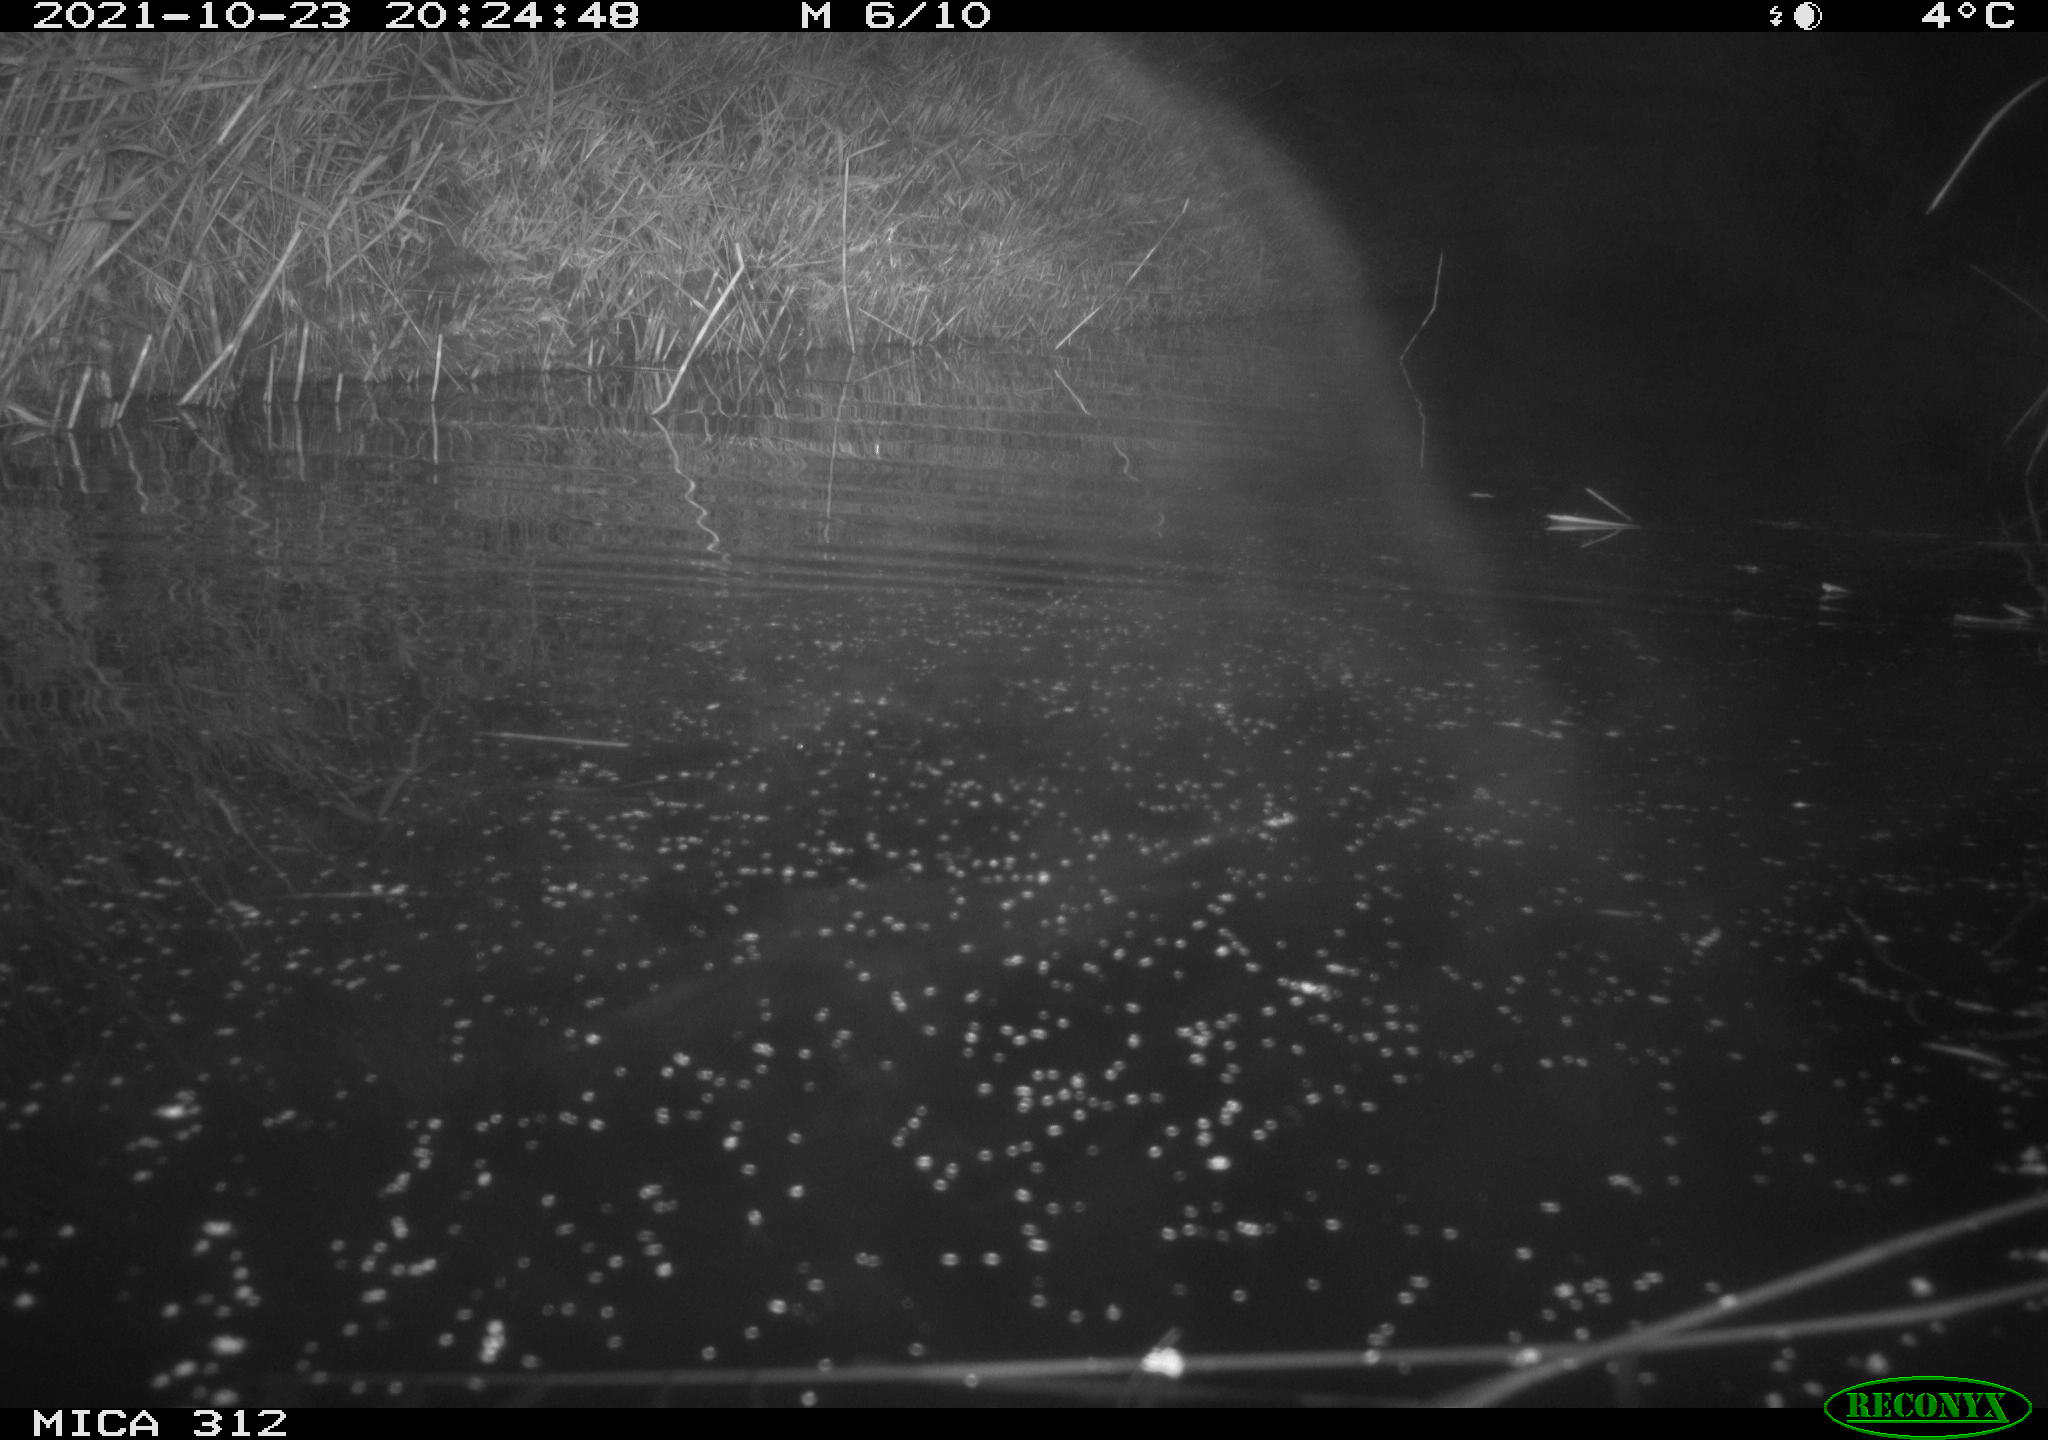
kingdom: Animalia
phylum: Chordata
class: Mammalia
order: Rodentia
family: Muridae
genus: Rattus
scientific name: Rattus norvegicus
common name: Brown rat
